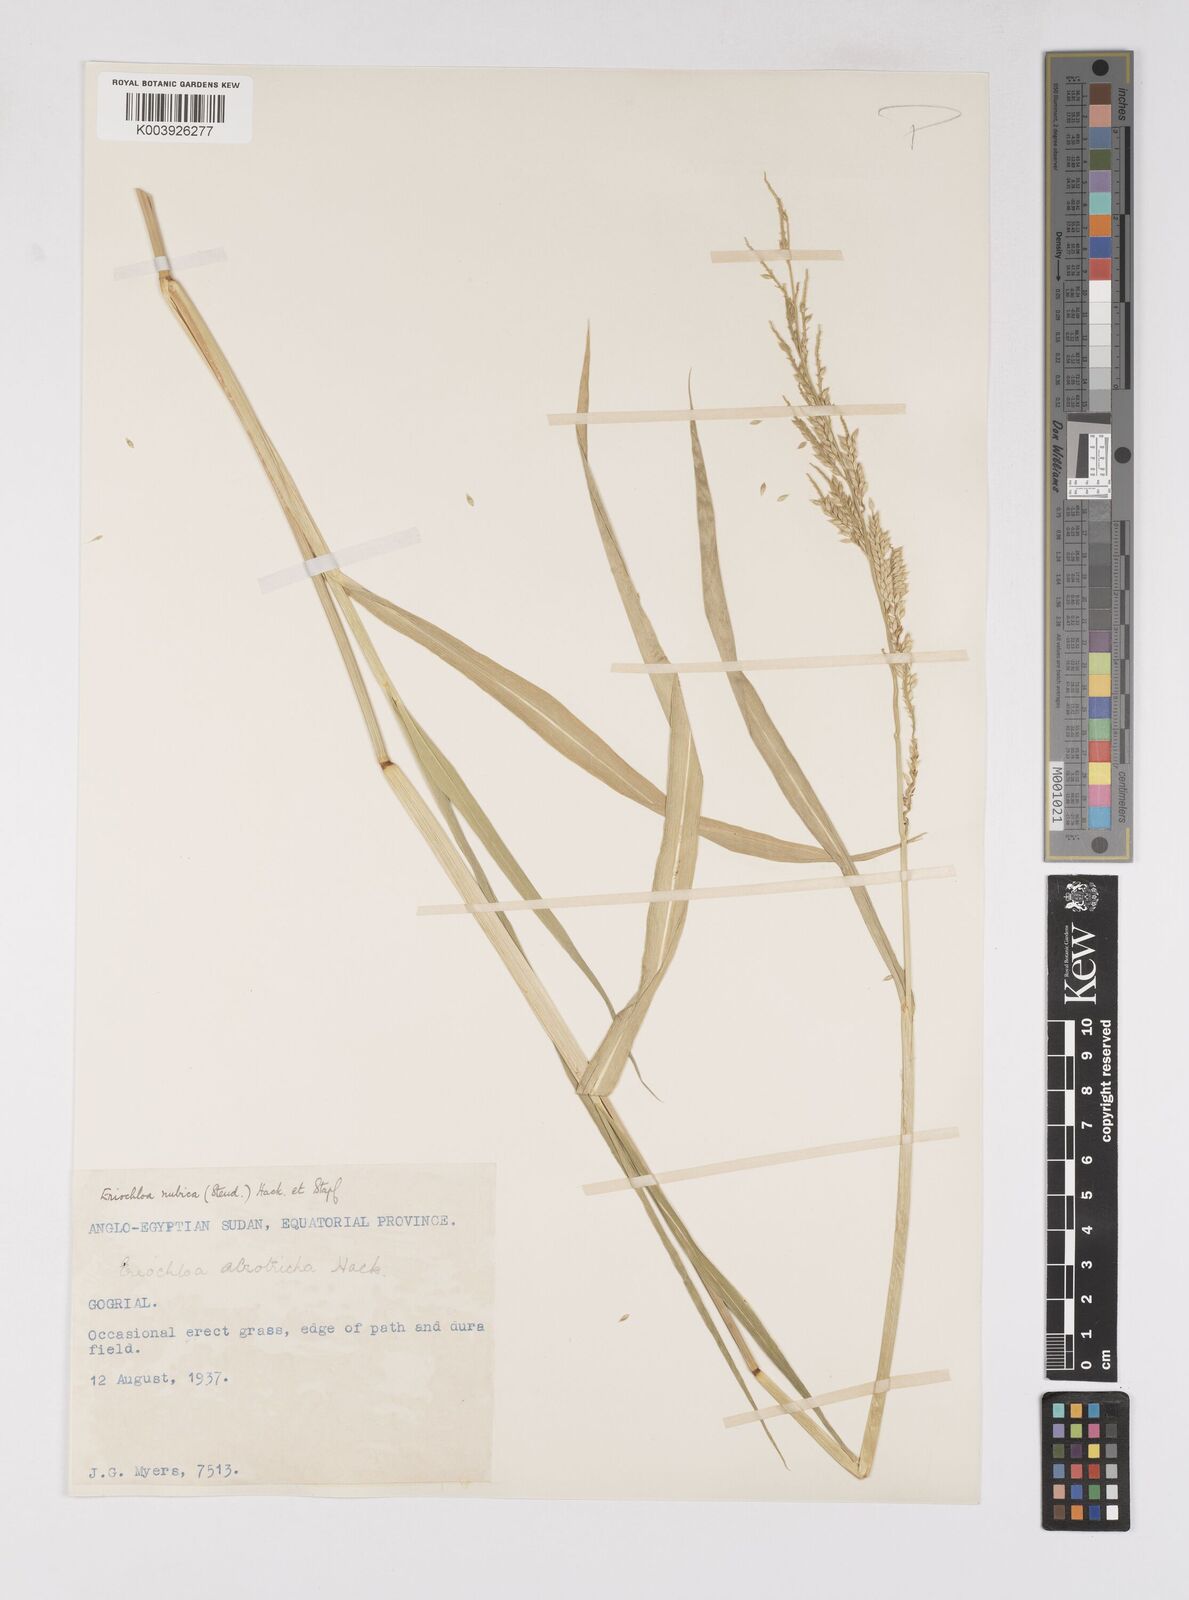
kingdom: Plantae
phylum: Tracheophyta
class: Liliopsida
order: Poales
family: Poaceae
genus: Eriochloa
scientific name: Eriochloa barbatus
